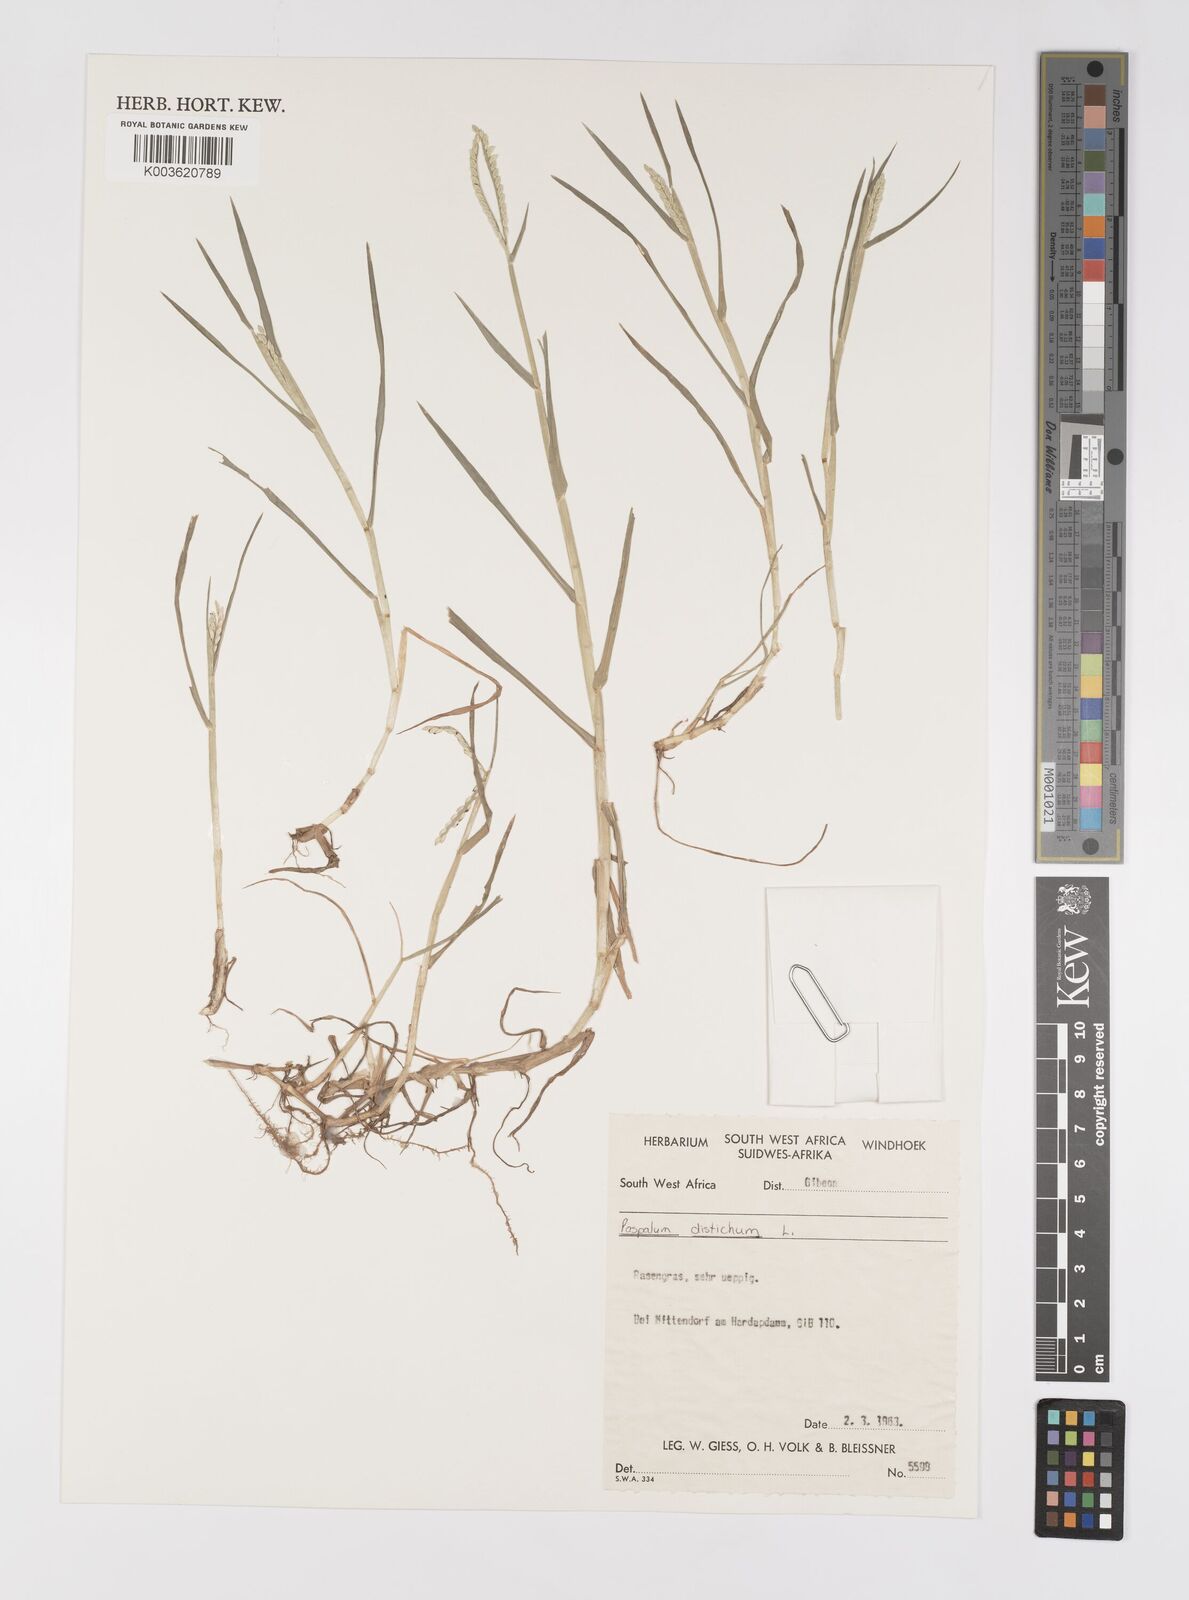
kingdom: Plantae
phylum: Tracheophyta
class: Liliopsida
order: Poales
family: Poaceae
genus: Paspalum
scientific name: Paspalum distichum
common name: Knotgrass
